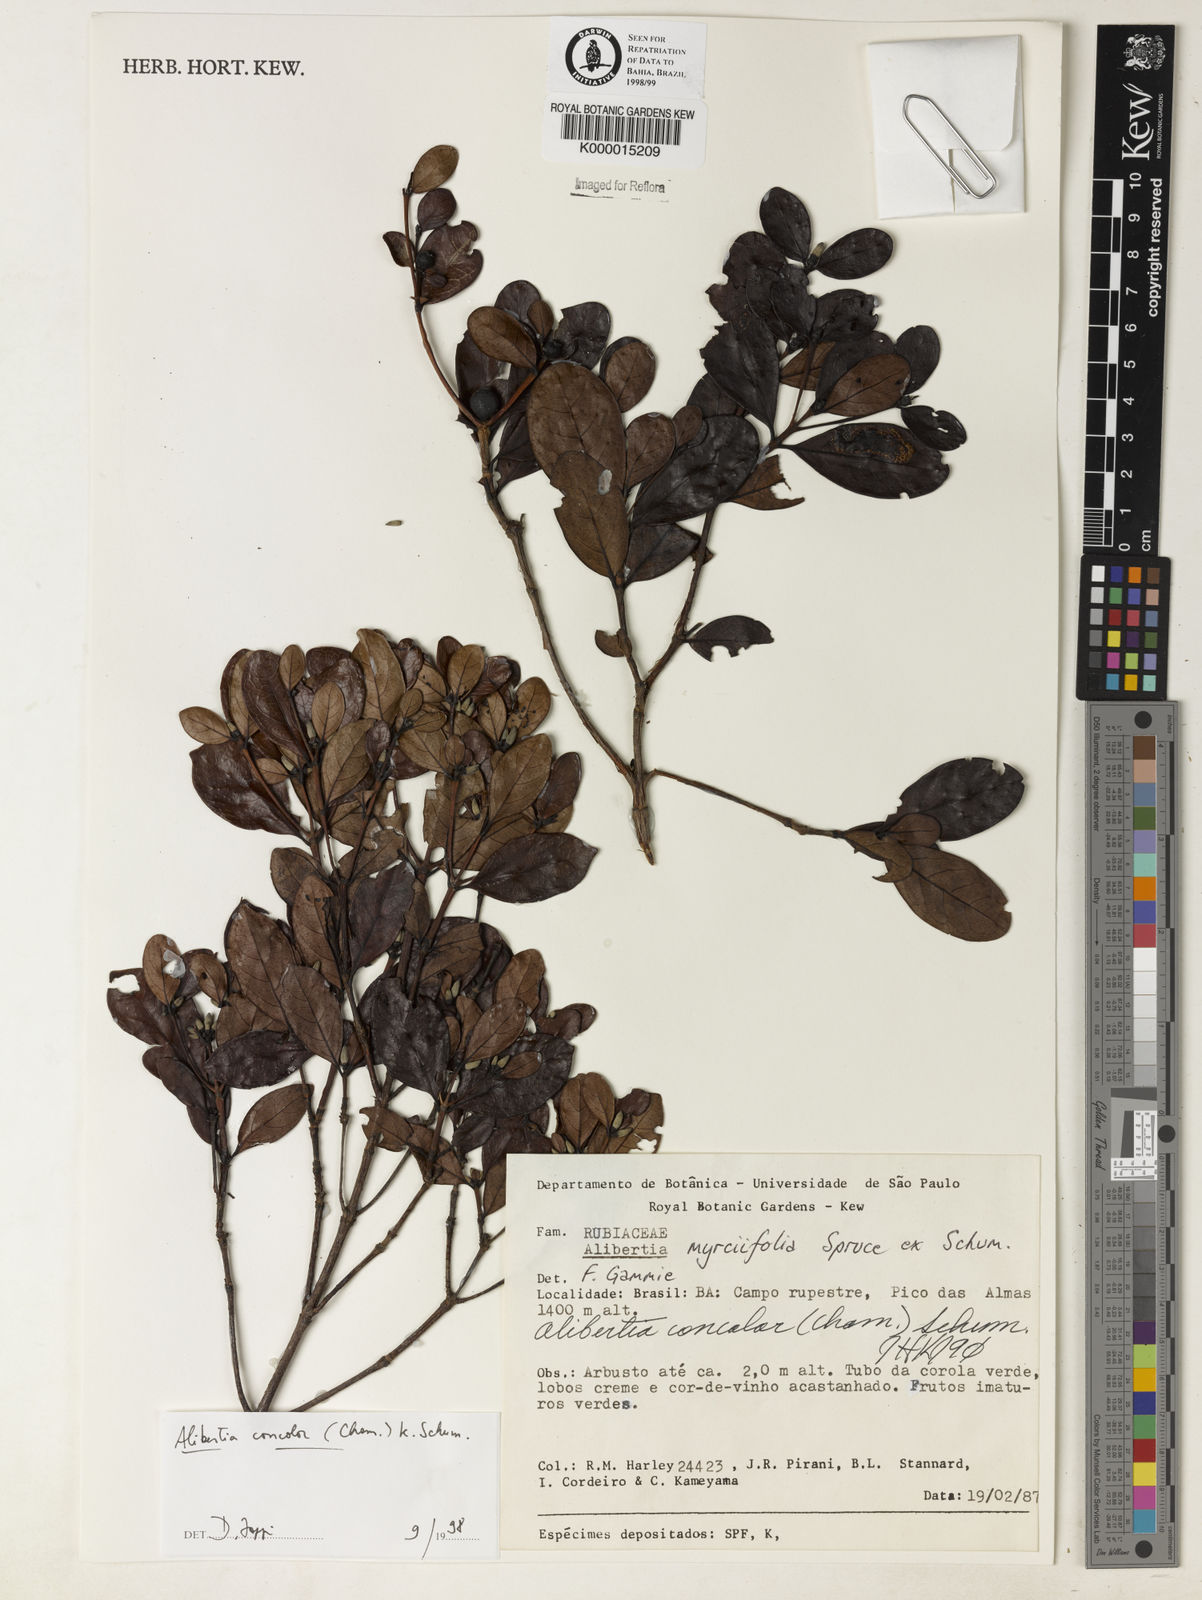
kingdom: Plantae
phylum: Tracheophyta
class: Magnoliopsida
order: Gentianales
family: Rubiaceae
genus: Cordiera
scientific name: Cordiera concolor
